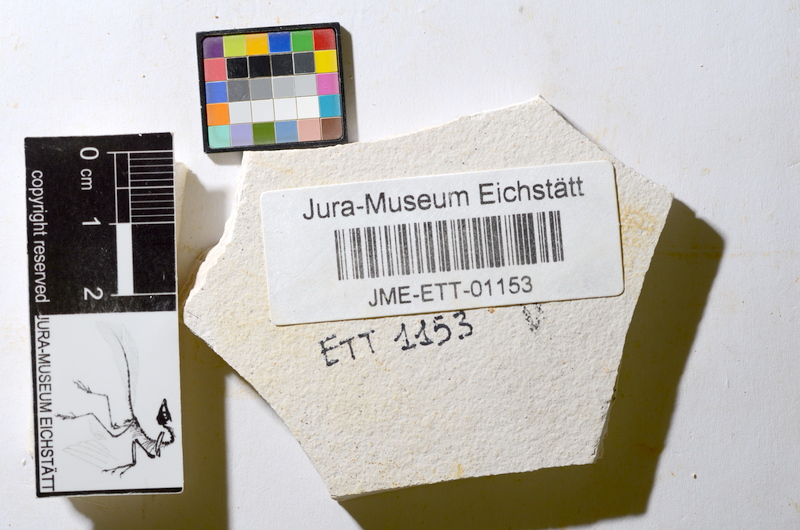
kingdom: Animalia
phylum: Chordata
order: Salmoniformes
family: Orthogonikleithridae
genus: Orthogonikleithrus
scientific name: Orthogonikleithrus hoelli
